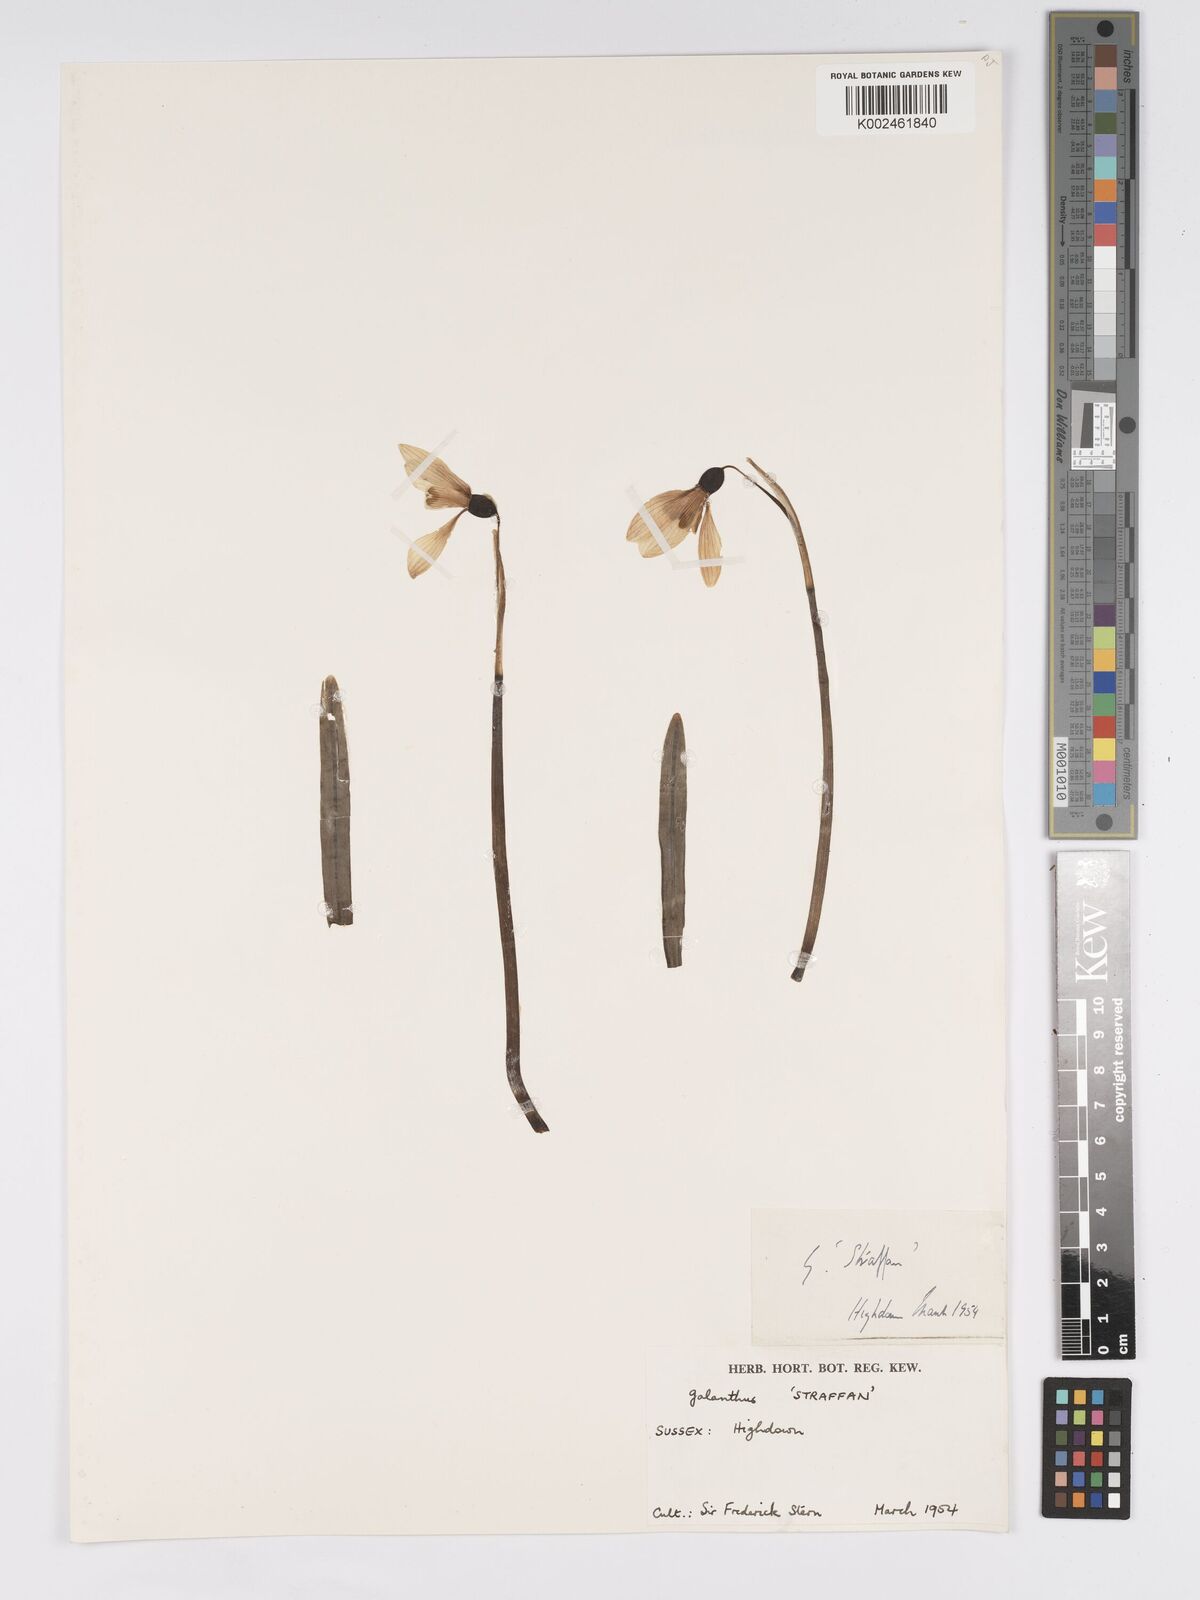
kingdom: Plantae
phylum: Tracheophyta
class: Liliopsida
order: Asparagales
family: Amaryllidaceae
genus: Galanthus
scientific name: Galanthus
